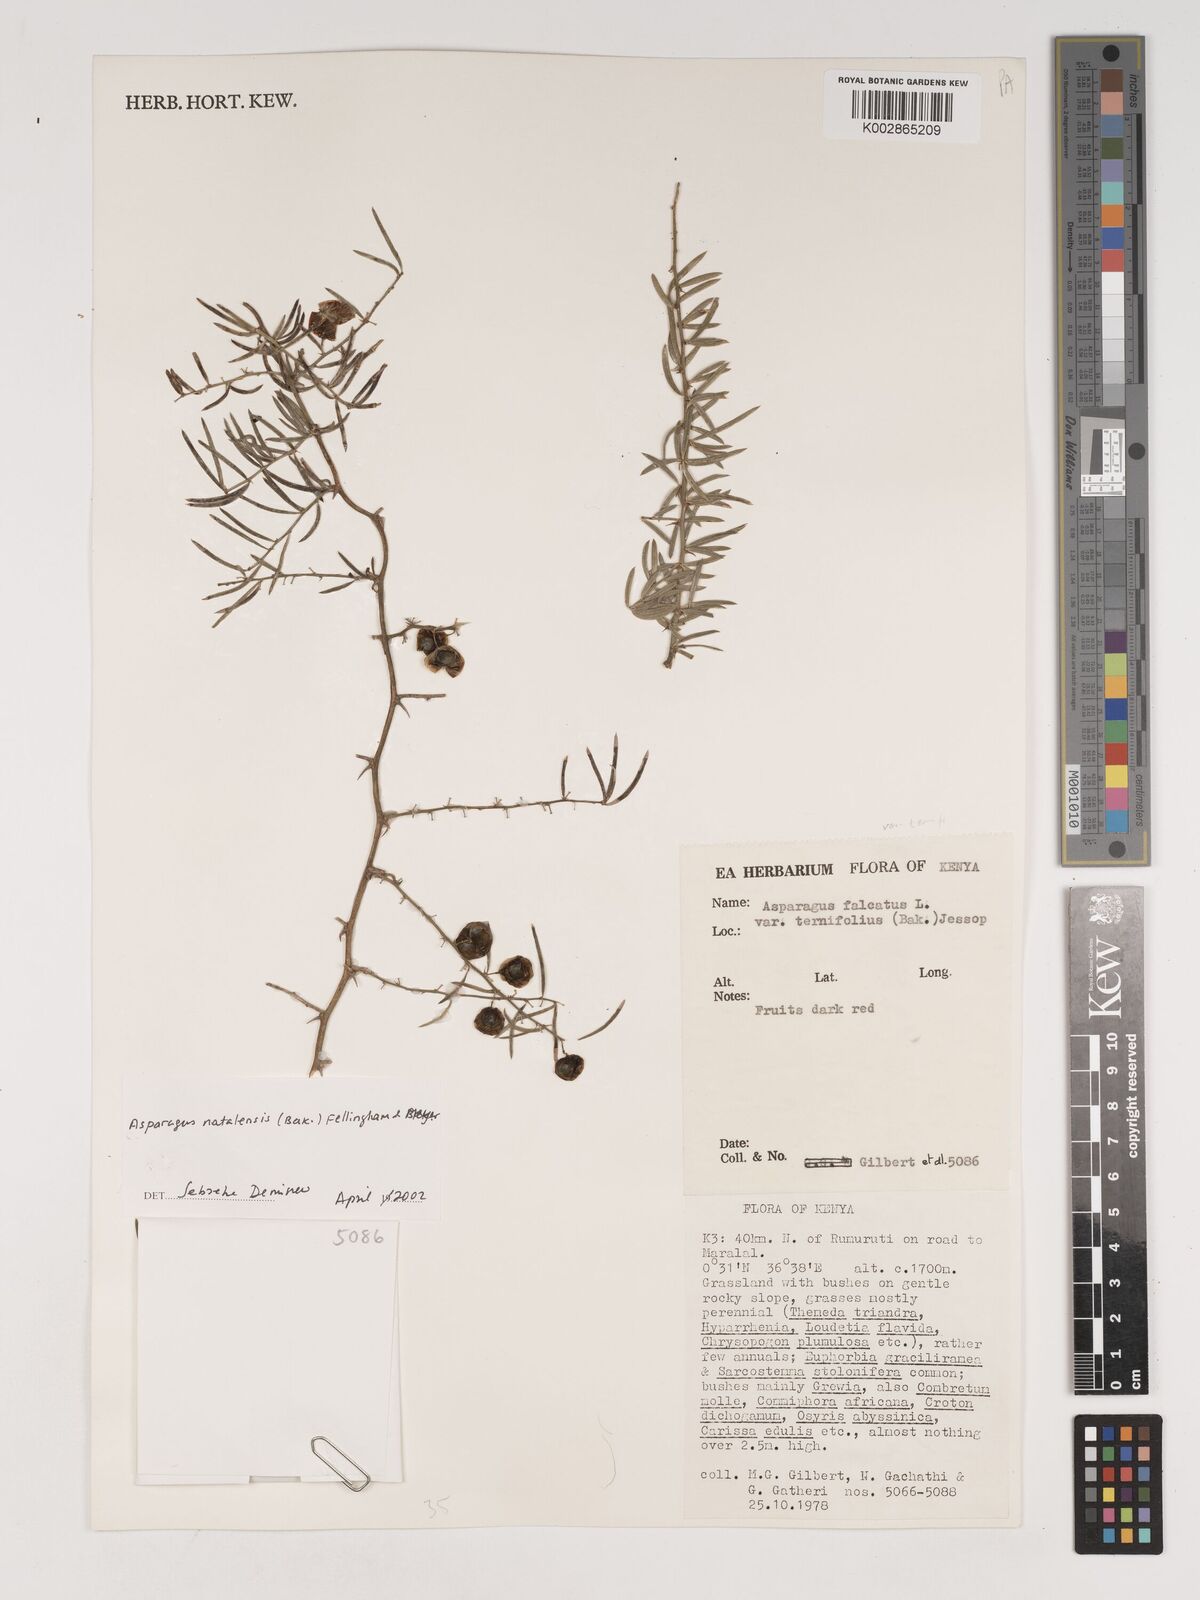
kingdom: Plantae
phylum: Tracheophyta
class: Liliopsida
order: Asparagales
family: Asparagaceae
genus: Asparagus
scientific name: Asparagus natalensis
